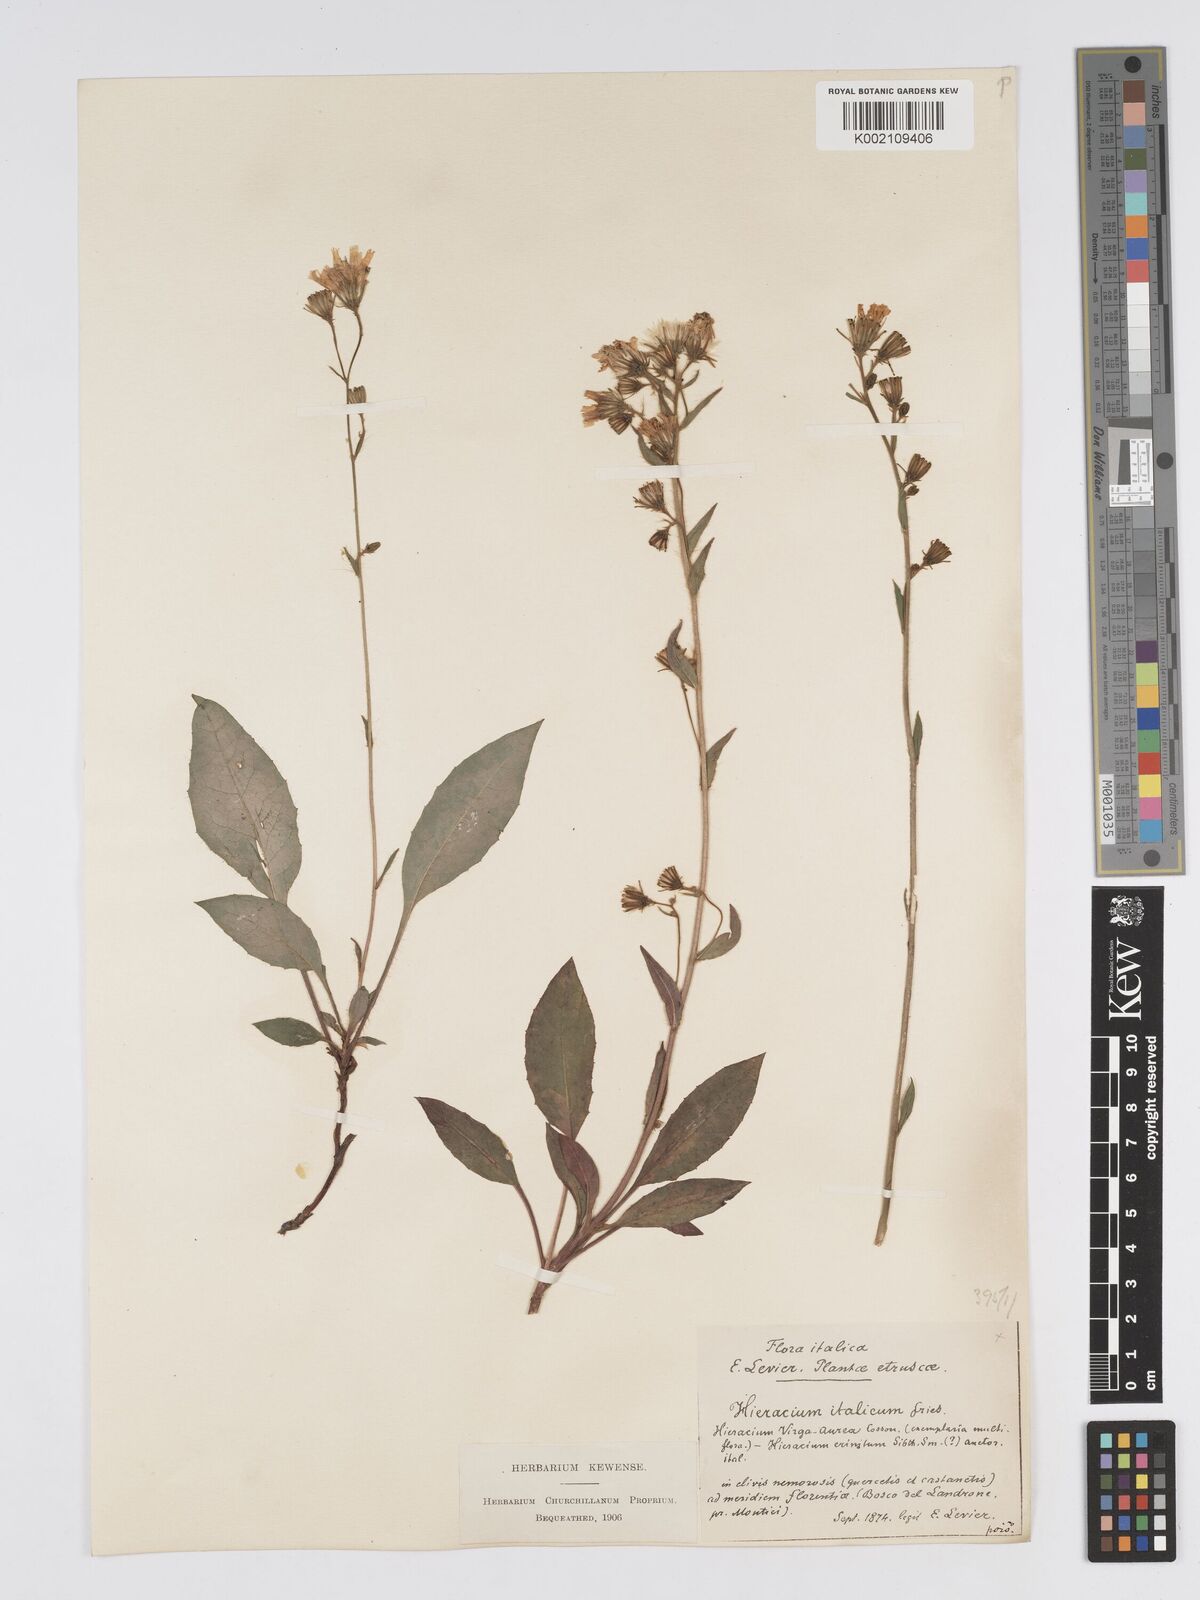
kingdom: Plantae
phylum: Tracheophyta
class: Magnoliopsida
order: Asterales
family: Asteraceae
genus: Hieracium
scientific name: Hieracium racemosum
